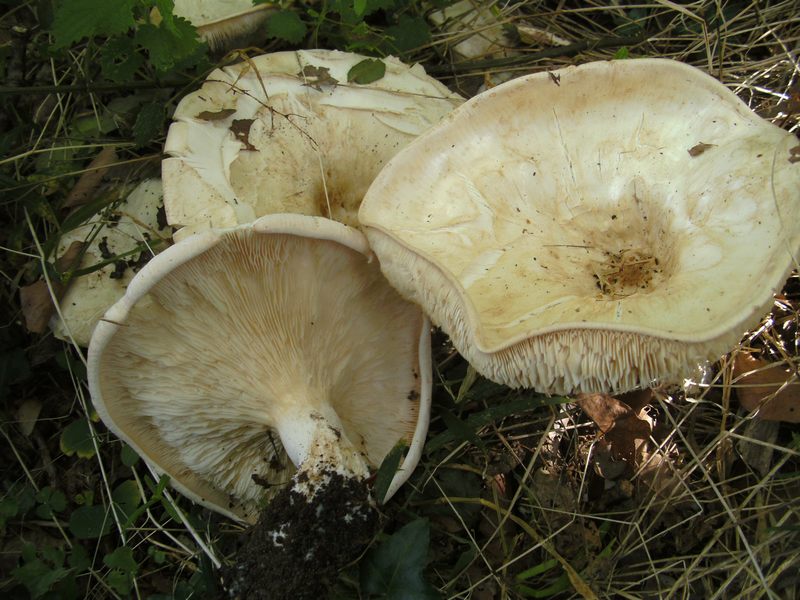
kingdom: Fungi
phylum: Basidiomycota
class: Agaricomycetes
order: Agaricales
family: Tricholomataceae
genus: Aspropaxillus
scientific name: Aspropaxillus giganteus
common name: kæmpe-tragtridderhat
